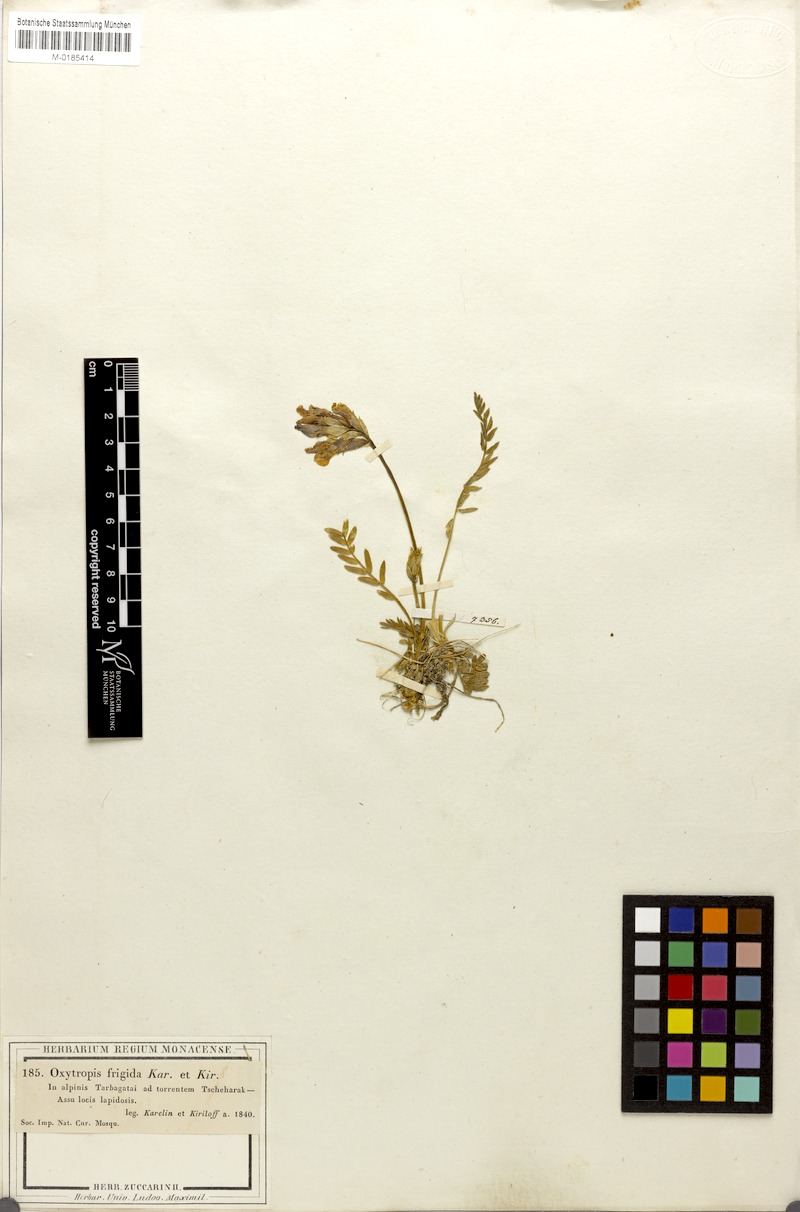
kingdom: Plantae
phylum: Tracheophyta
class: Magnoliopsida
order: Fabales
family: Fabaceae
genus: Oxytropis
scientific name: Oxytropis frigida
